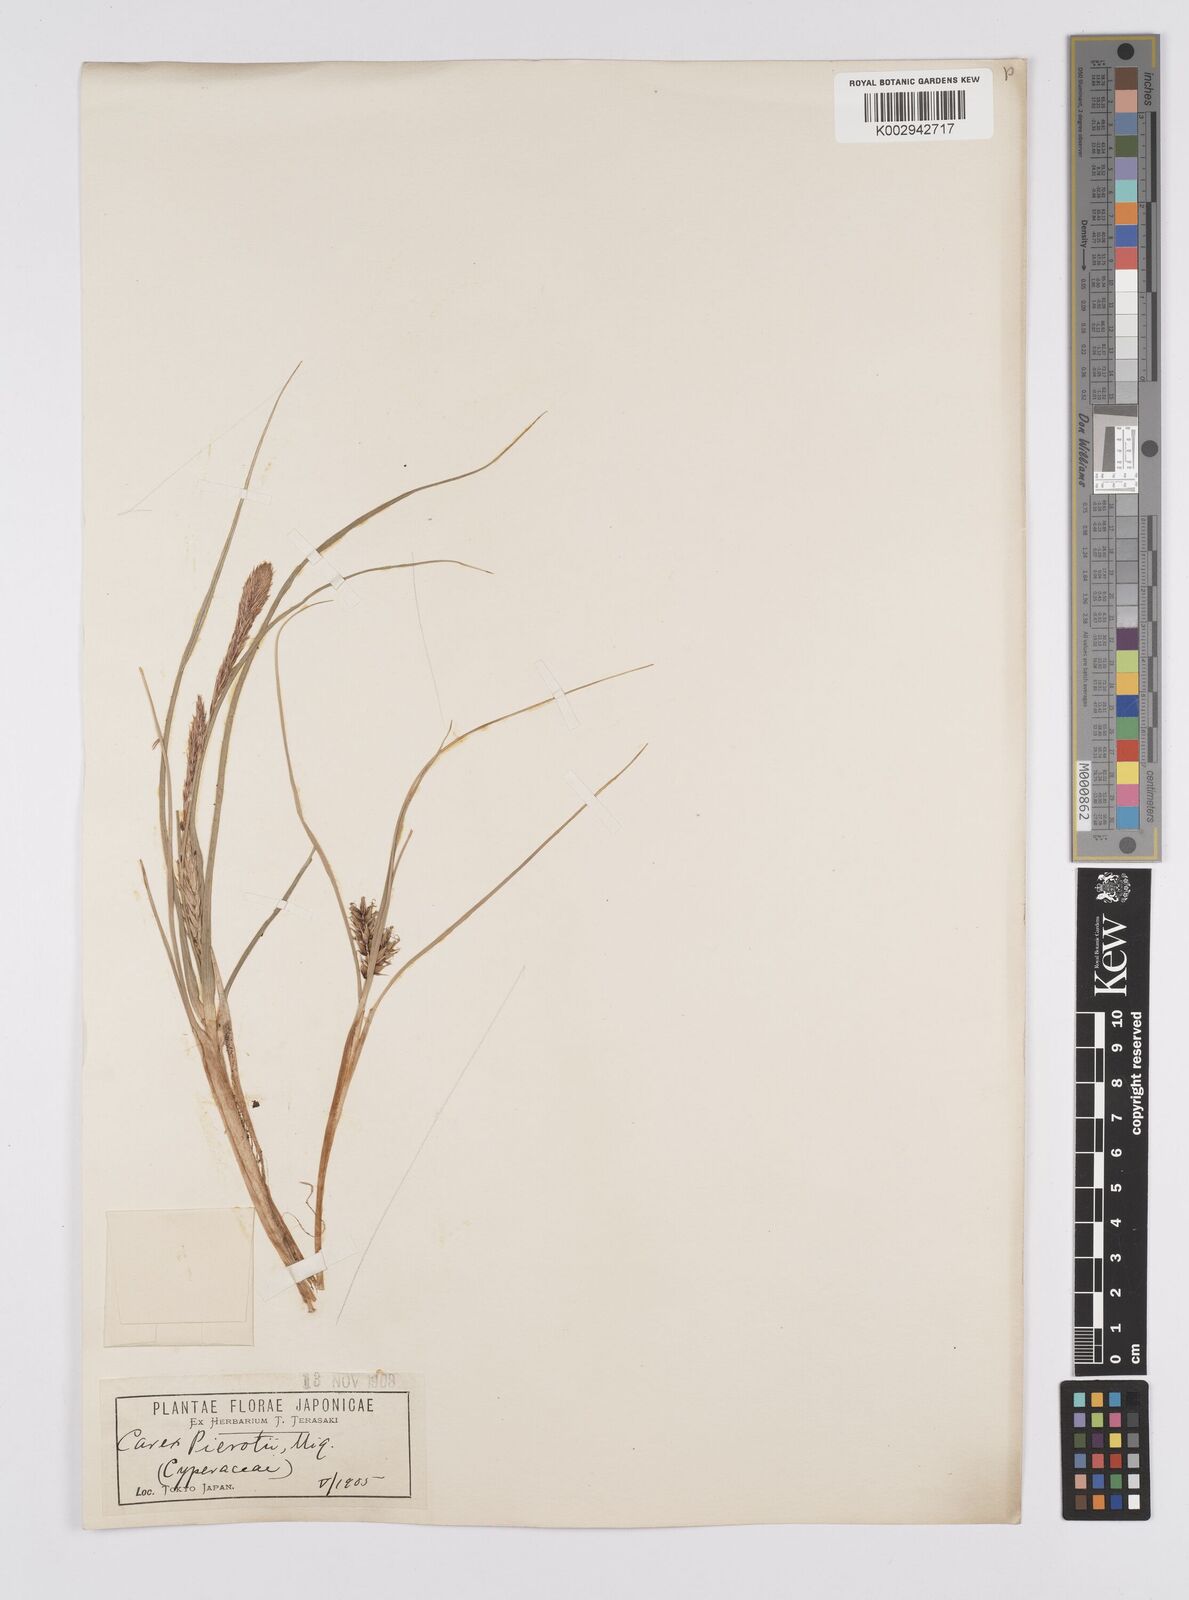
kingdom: Plantae
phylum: Tracheophyta
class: Liliopsida
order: Poales
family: Cyperaceae
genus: Carex
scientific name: Carex scabrifolia
